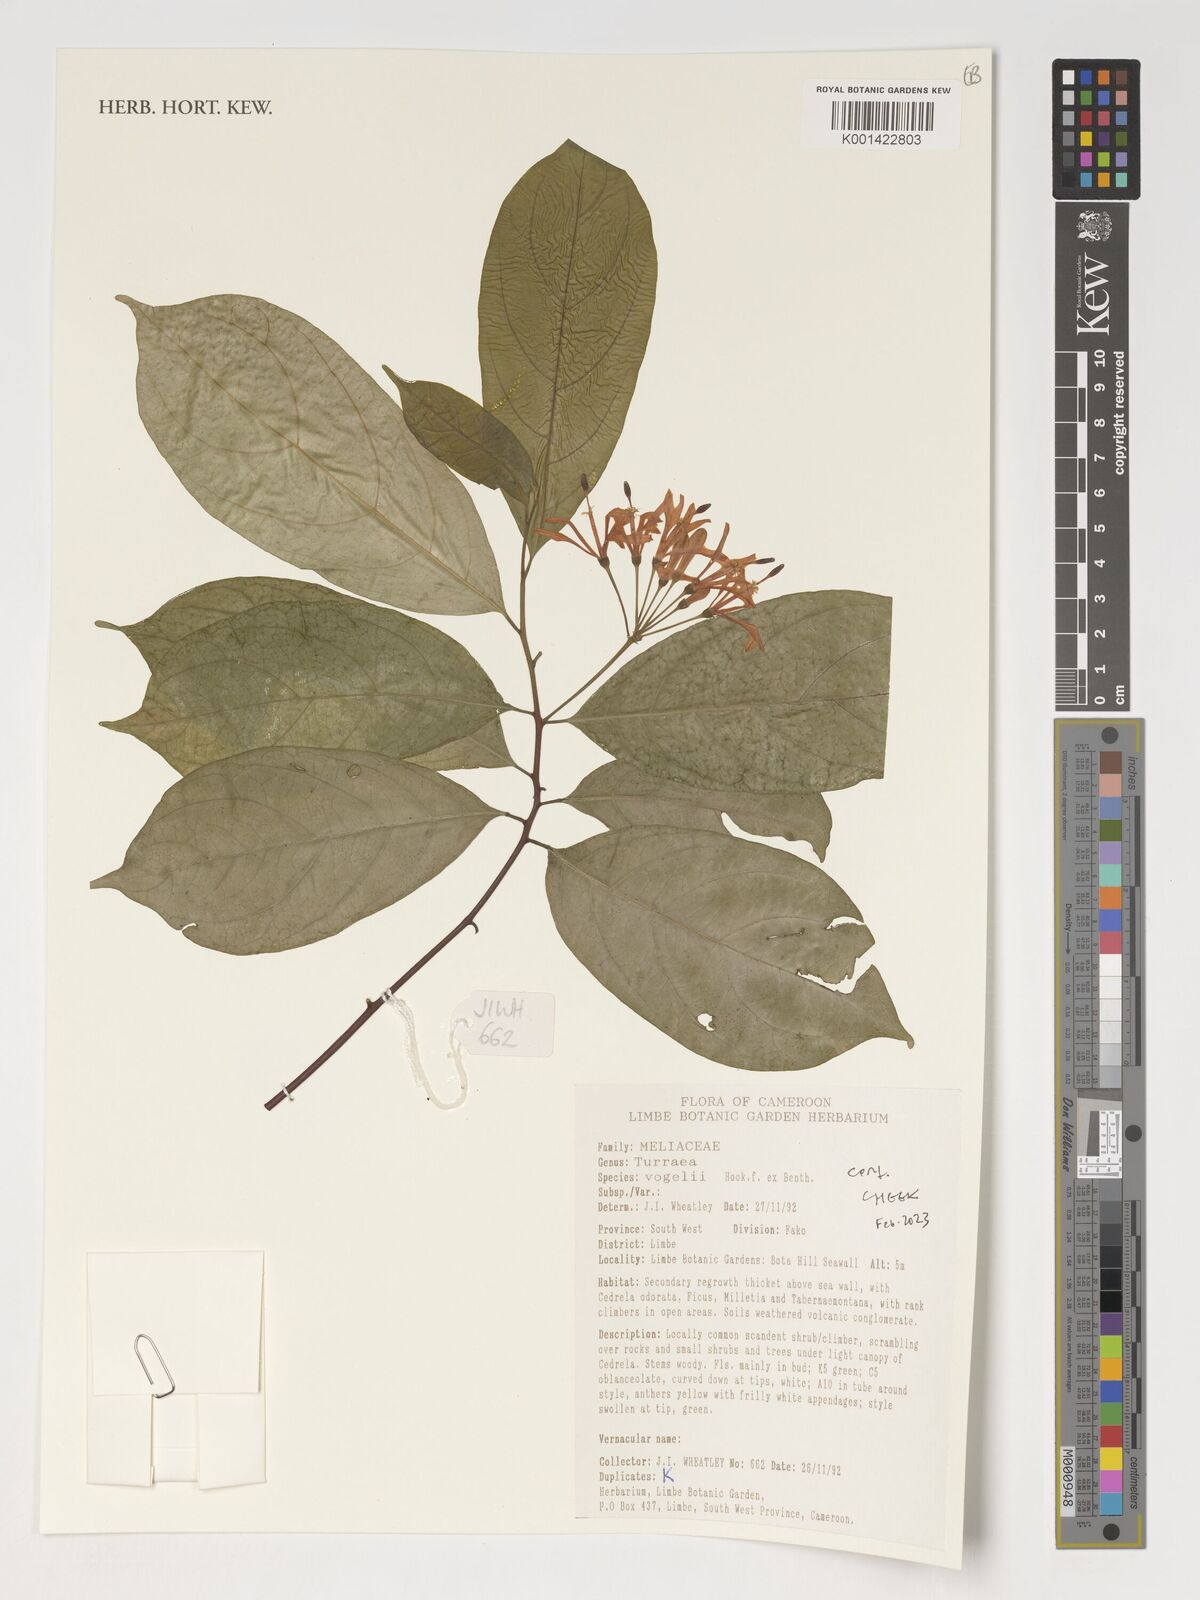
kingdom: Plantae
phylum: Tracheophyta
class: Magnoliopsida
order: Sapindales
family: Meliaceae
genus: Turraea
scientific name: Turraea vogelii
